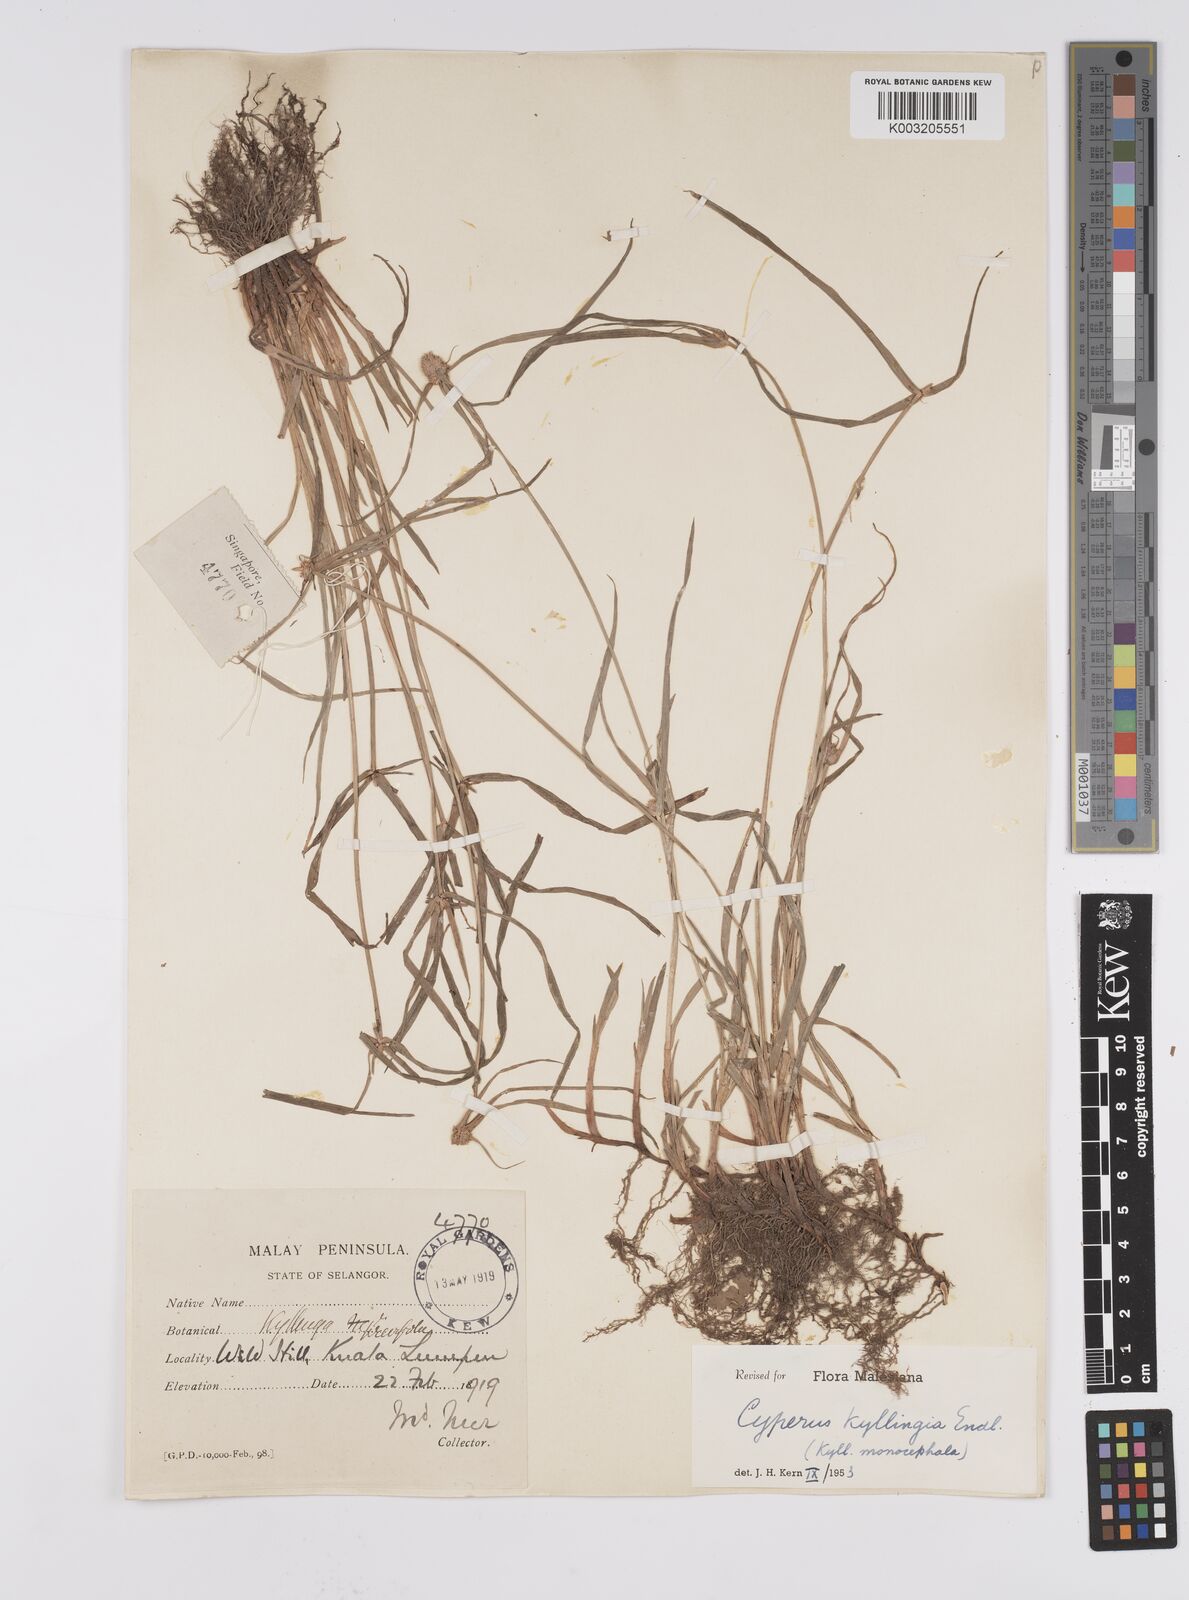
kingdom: Plantae
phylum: Tracheophyta
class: Liliopsida
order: Poales
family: Cyperaceae
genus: Cyperus
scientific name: Cyperus nemoralis
